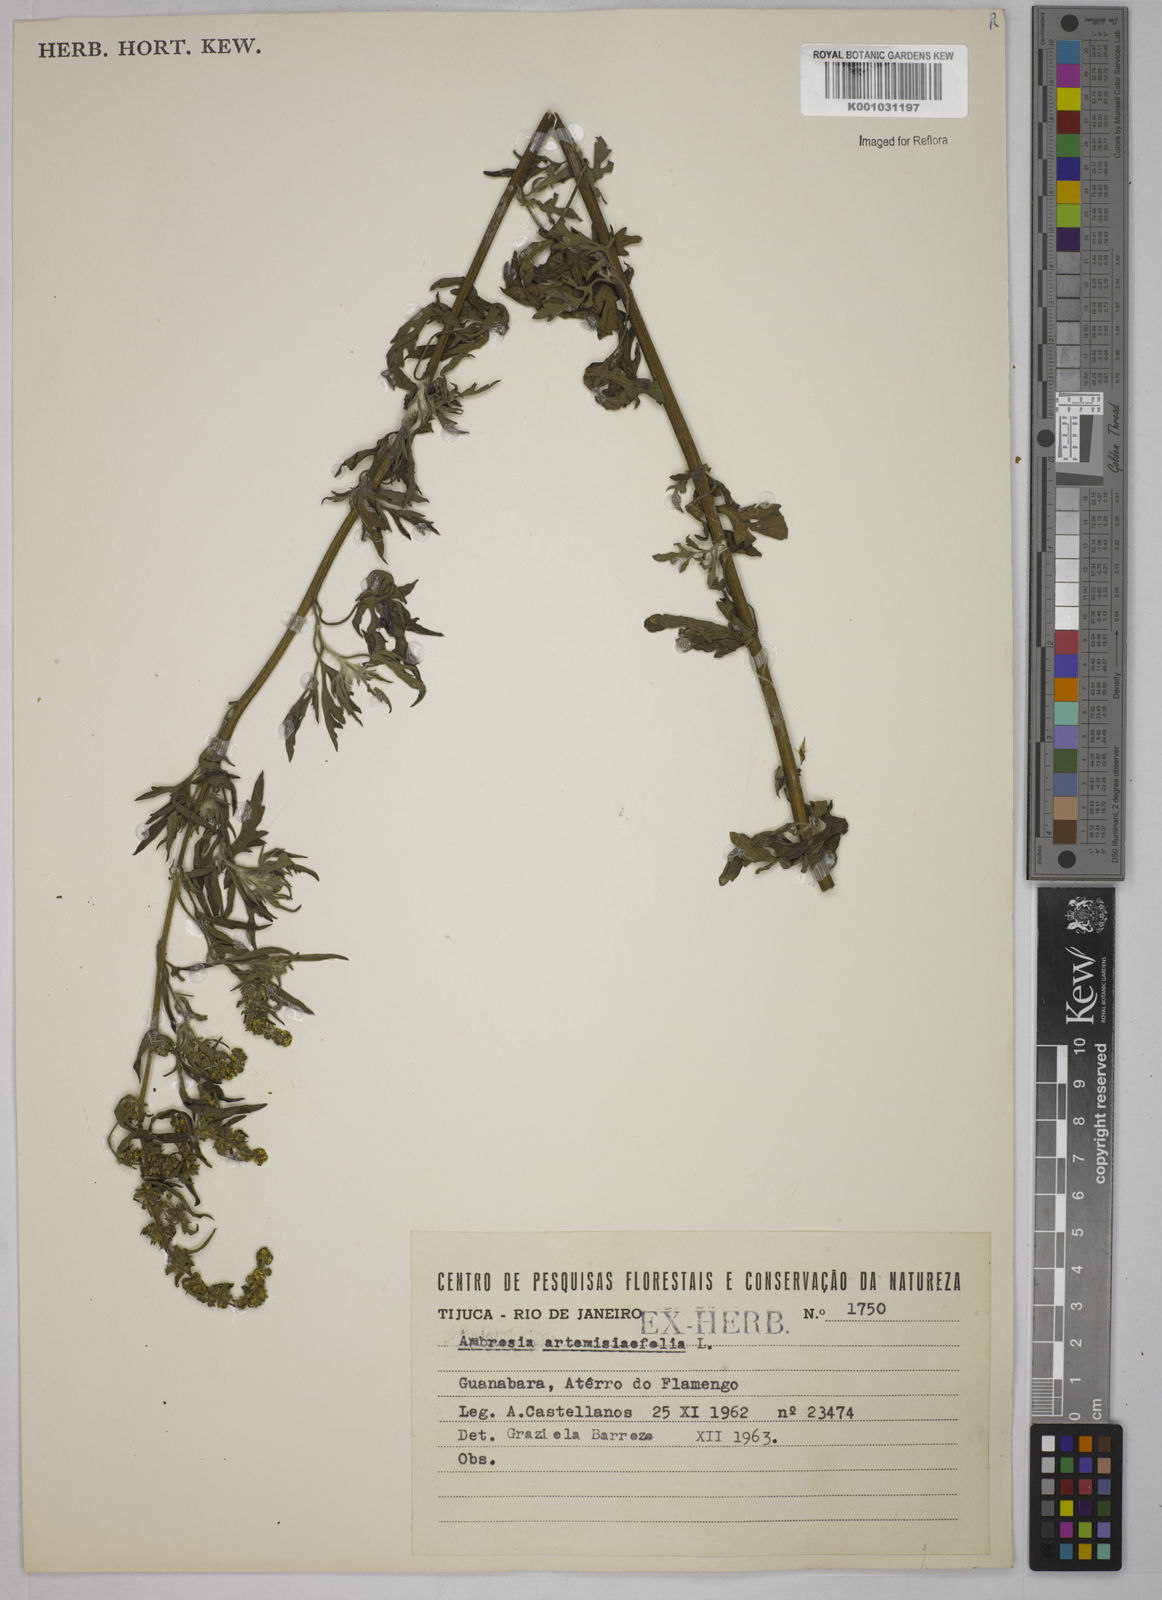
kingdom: Plantae
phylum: Tracheophyta
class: Magnoliopsida
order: Asterales
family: Asteraceae
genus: Ambrosia
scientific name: Ambrosia artemisiifolia
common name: Annual ragweed
